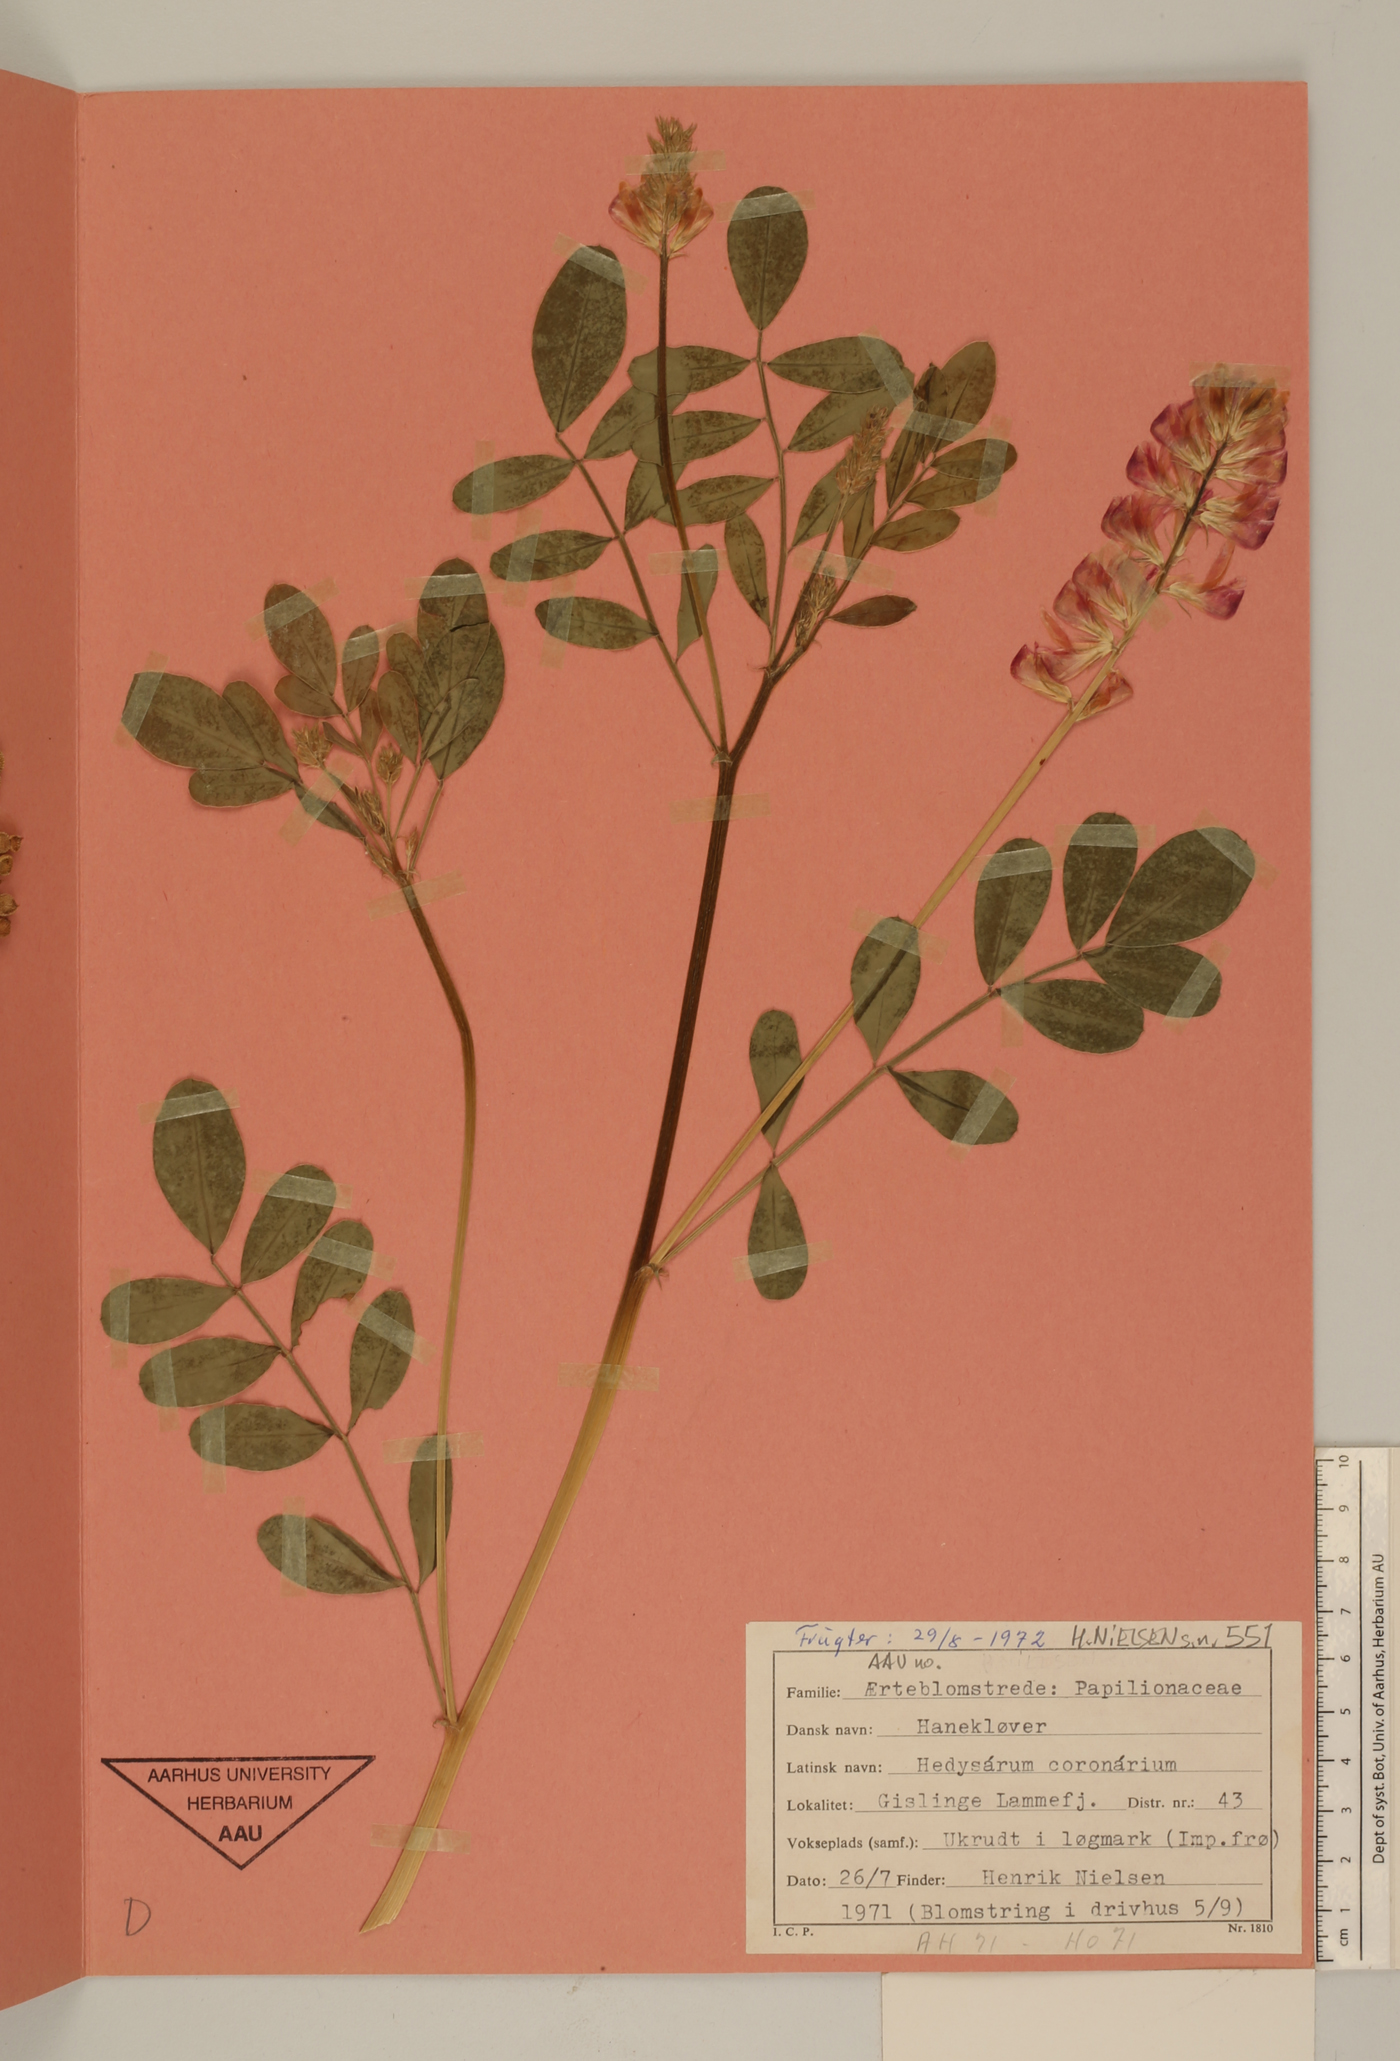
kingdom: Plantae
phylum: Tracheophyta
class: Magnoliopsida
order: Fabales
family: Fabaceae
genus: Sulla
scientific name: Sulla coronaria
